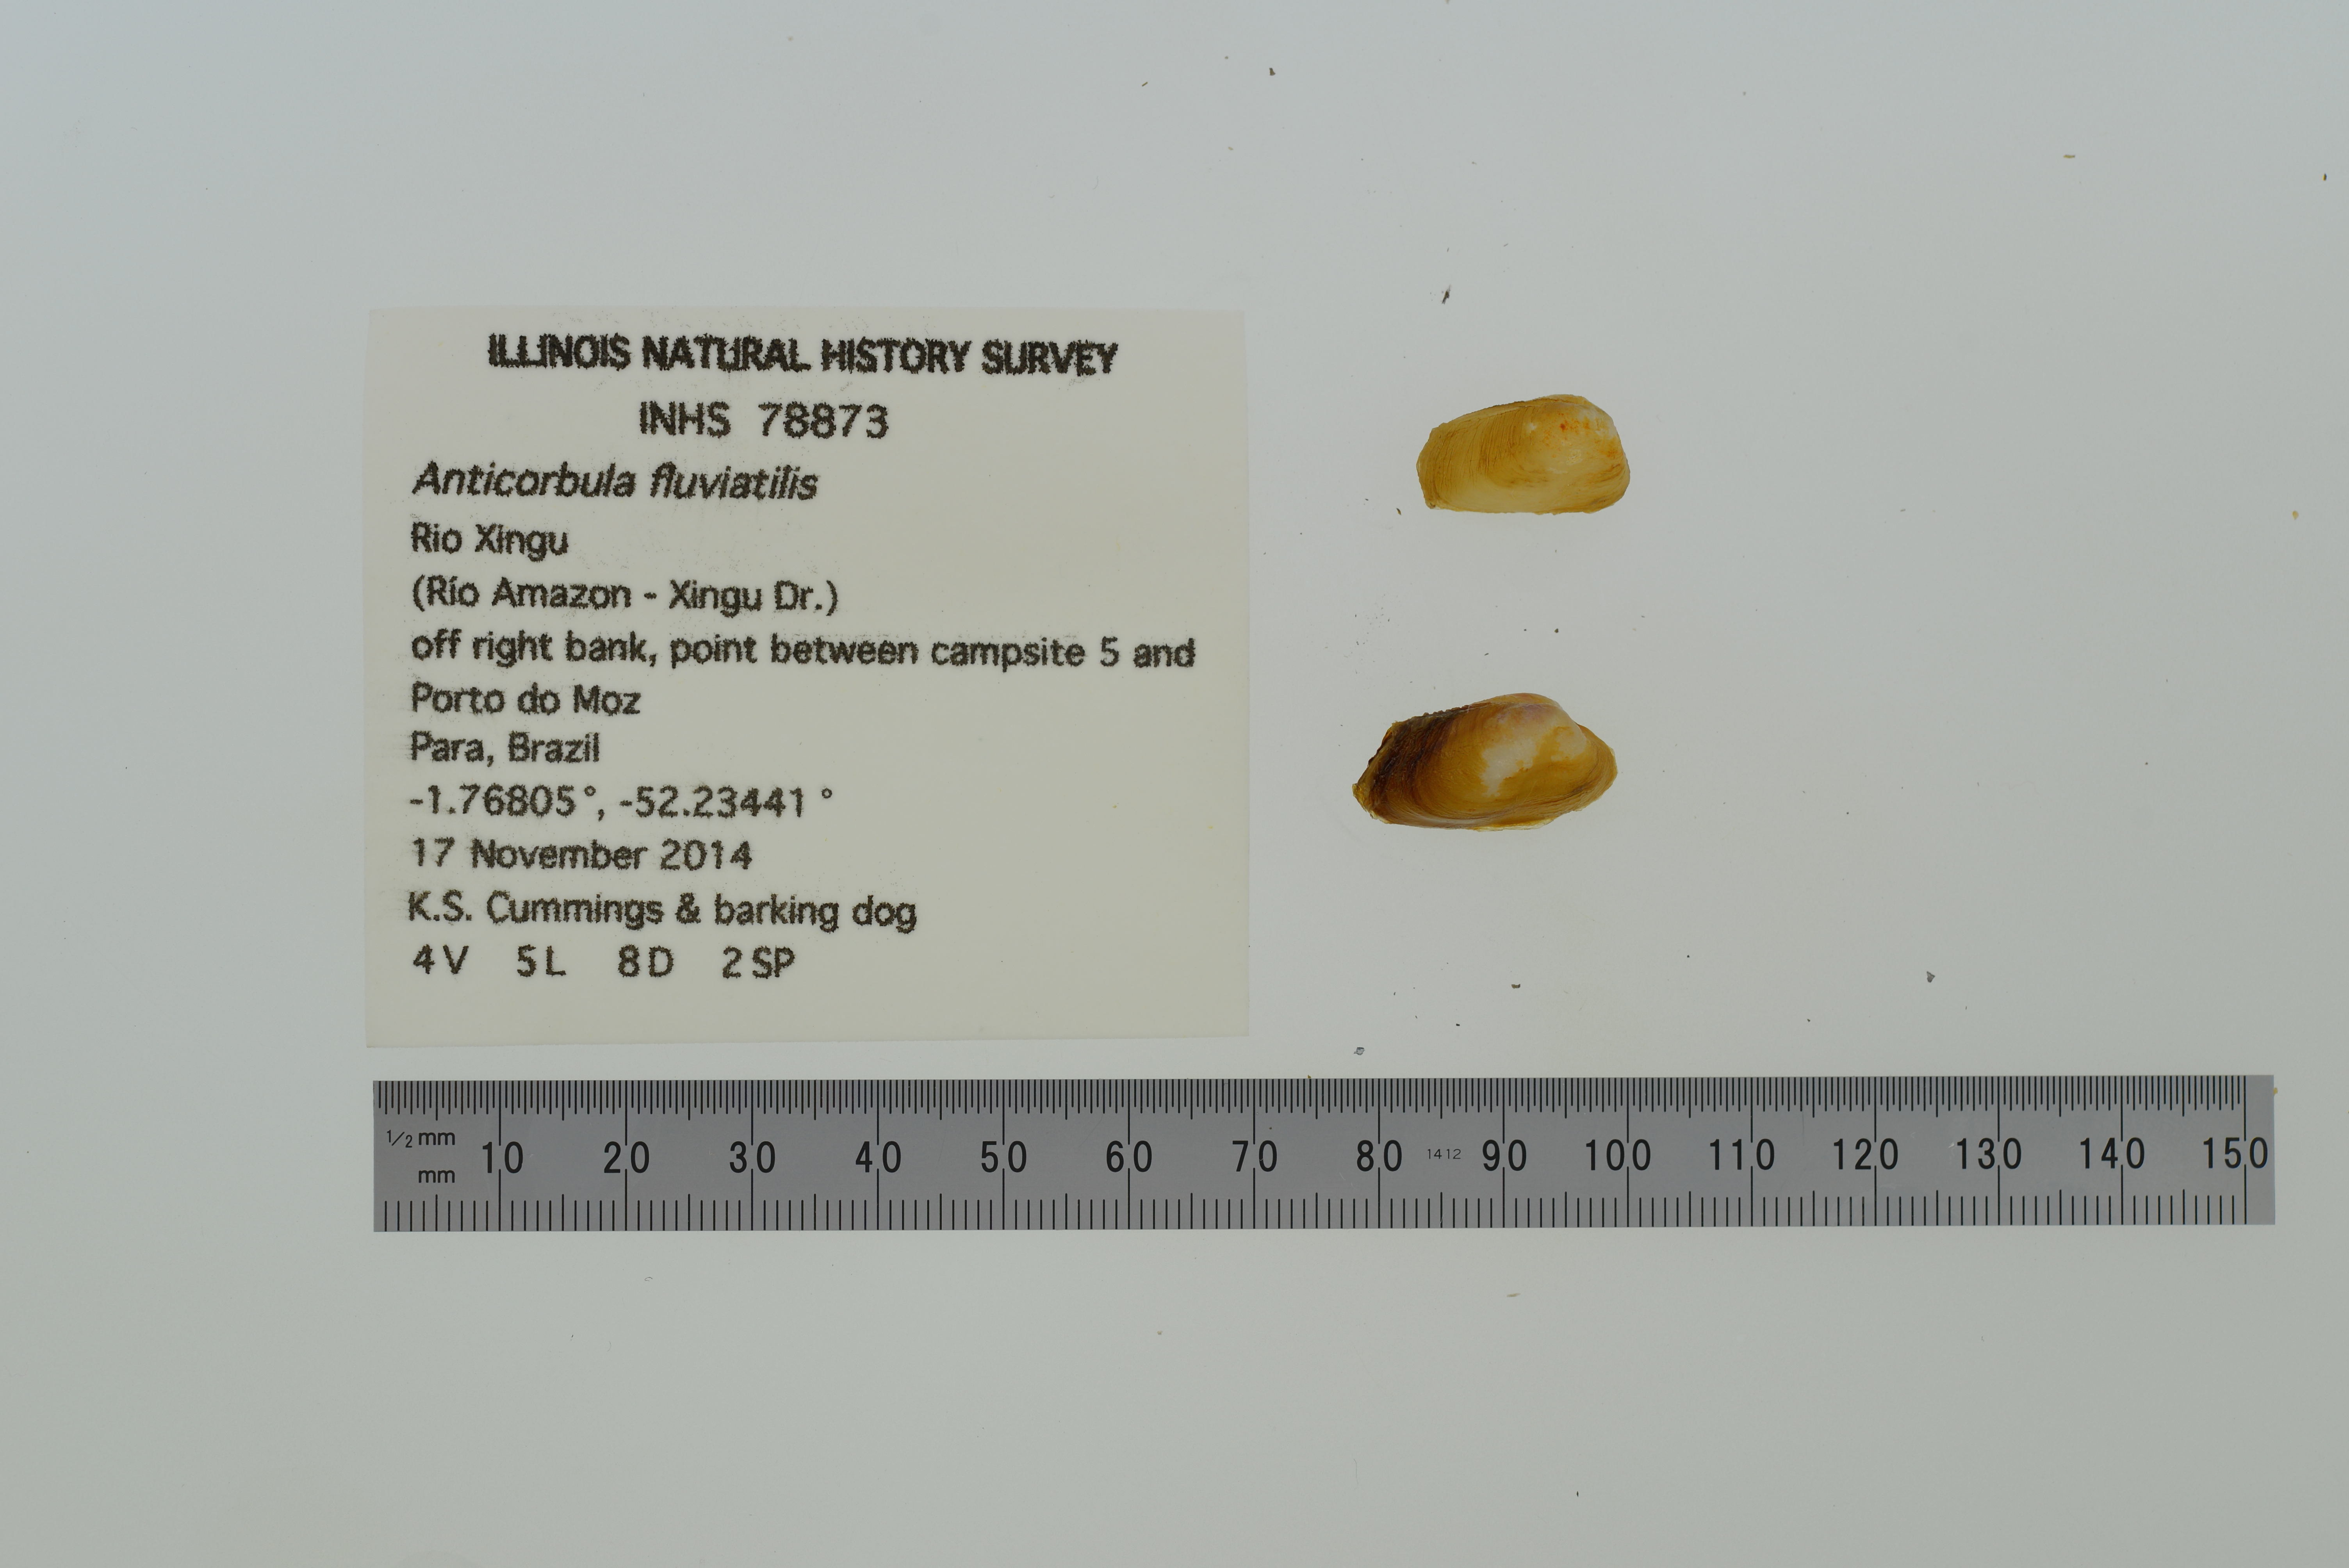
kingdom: Animalia
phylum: Mollusca
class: Bivalvia
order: Myida
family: Corbulidae
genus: Anticorbula
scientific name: Anticorbula fluviatilis
